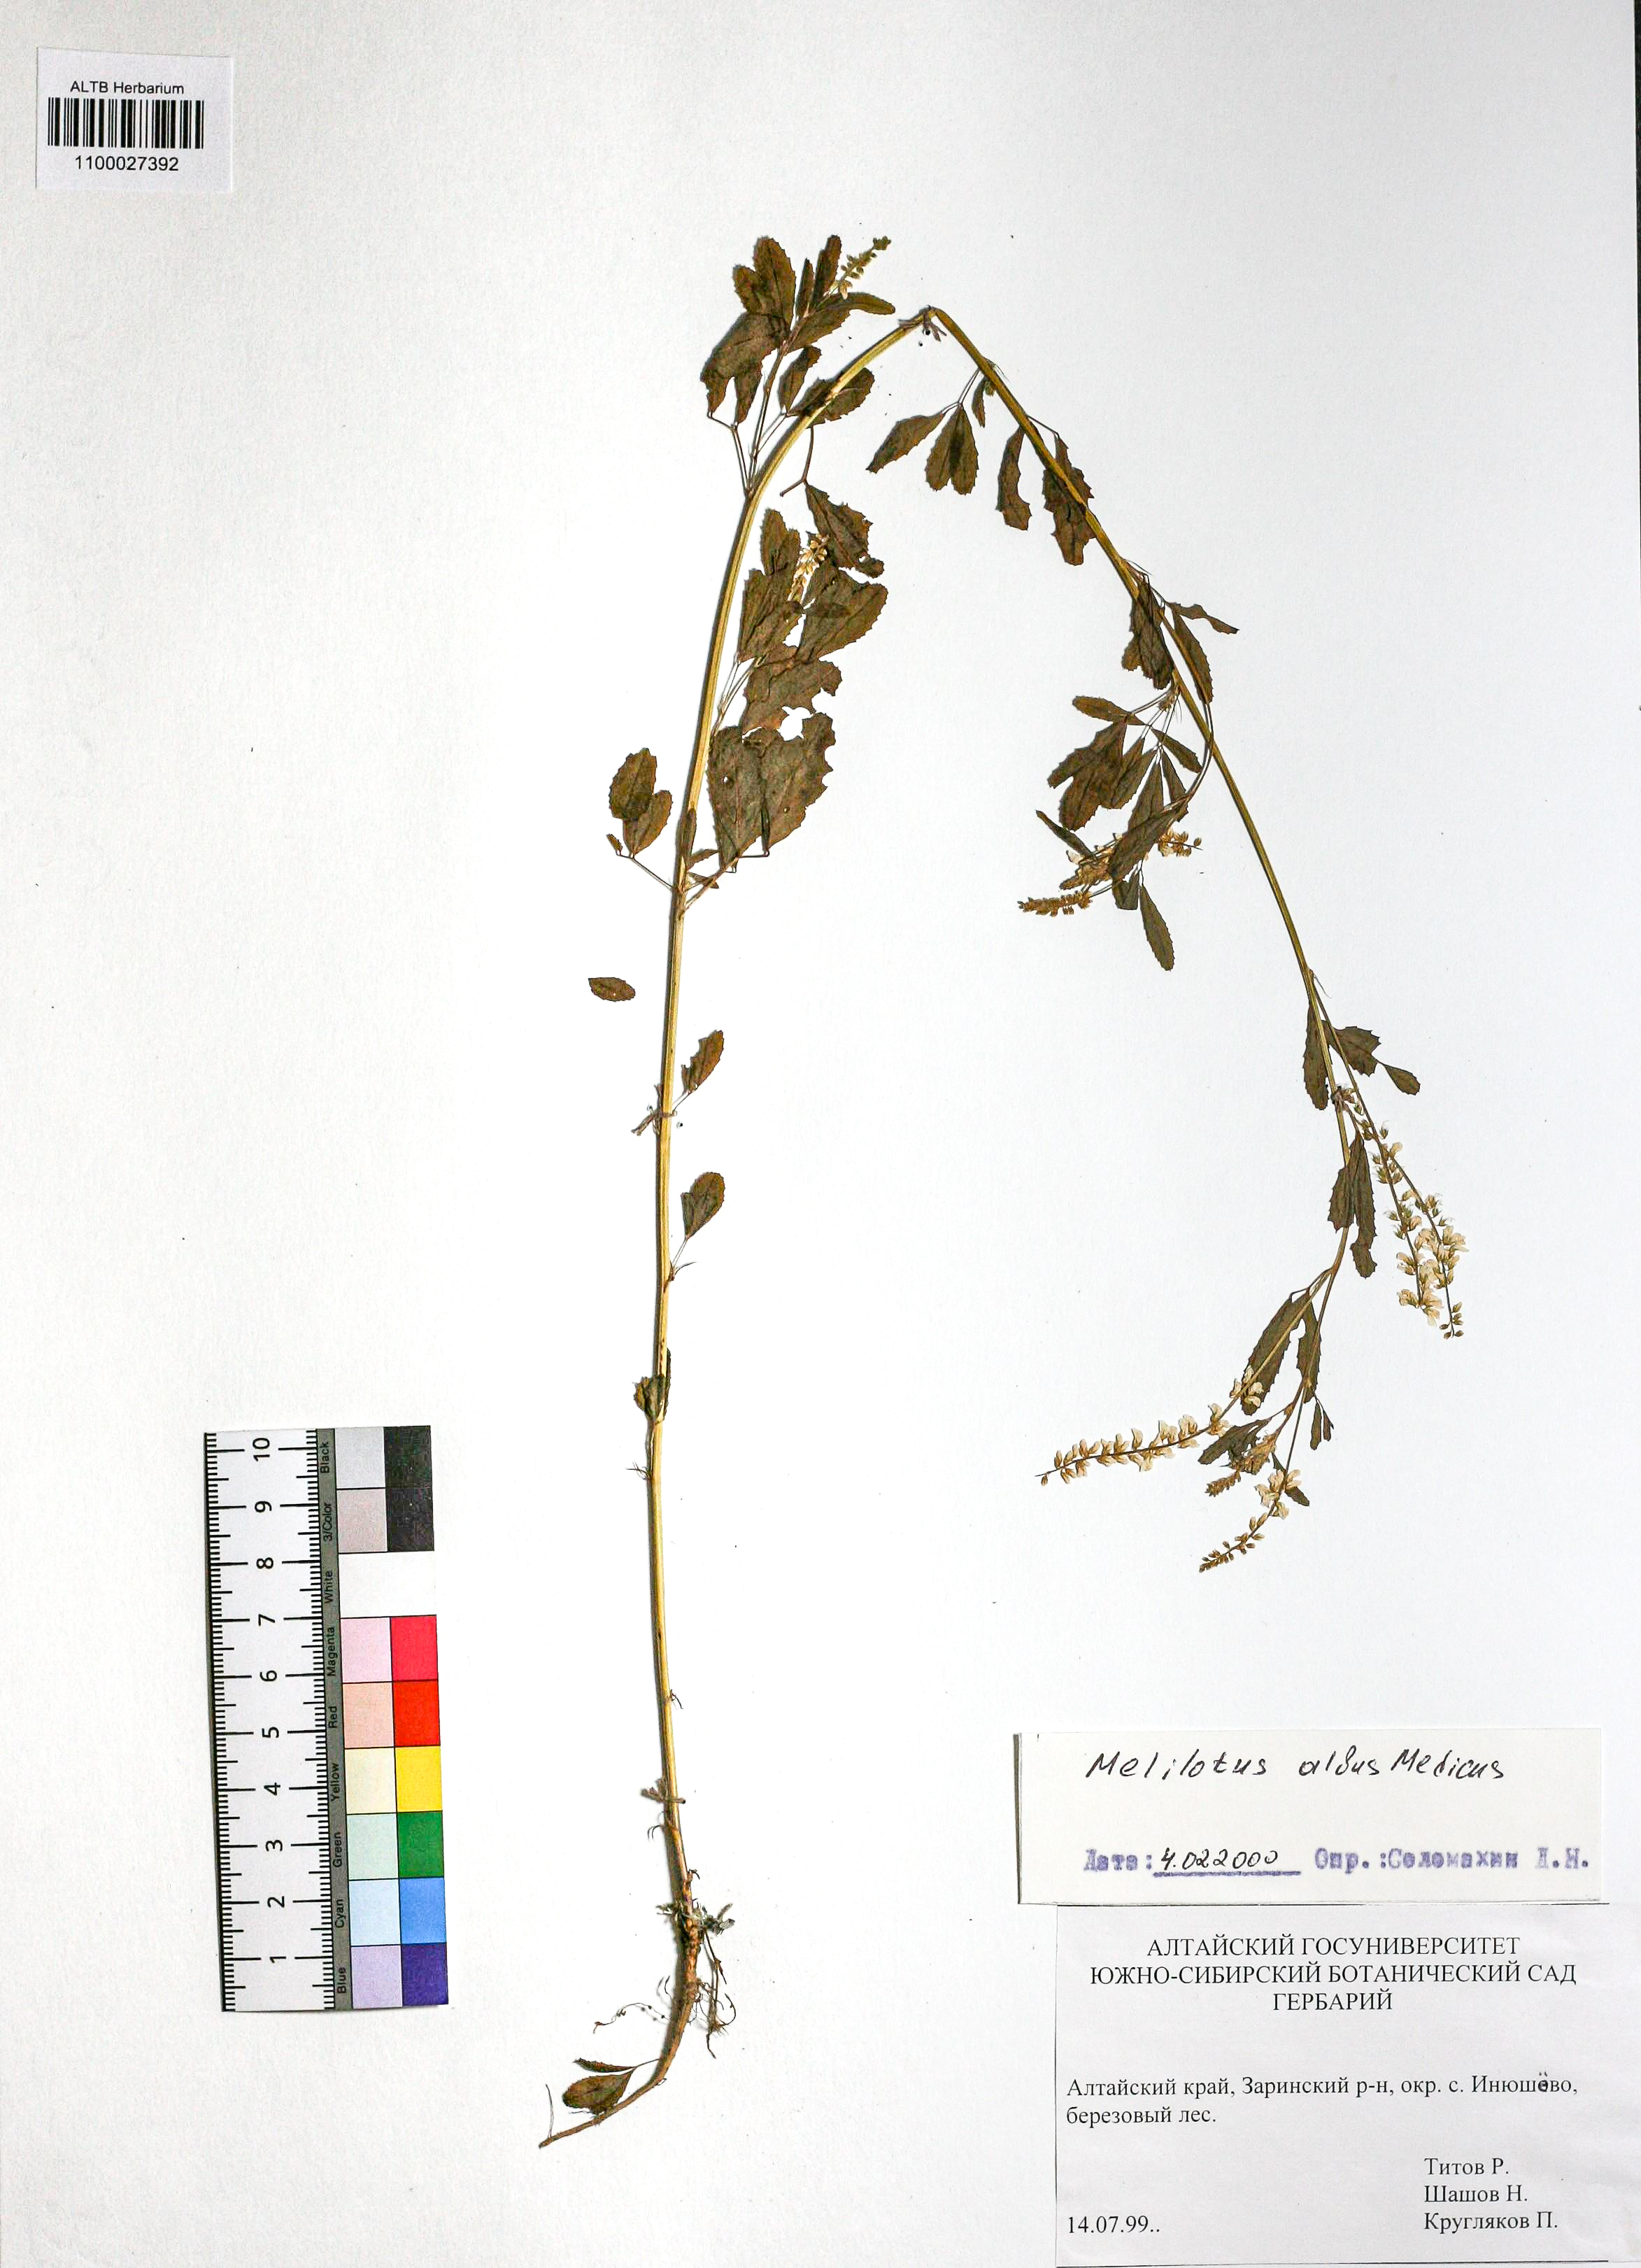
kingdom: Plantae
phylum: Tracheophyta
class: Magnoliopsida
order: Fabales
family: Fabaceae
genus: Melilotus
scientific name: Melilotus albus
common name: White melilot
